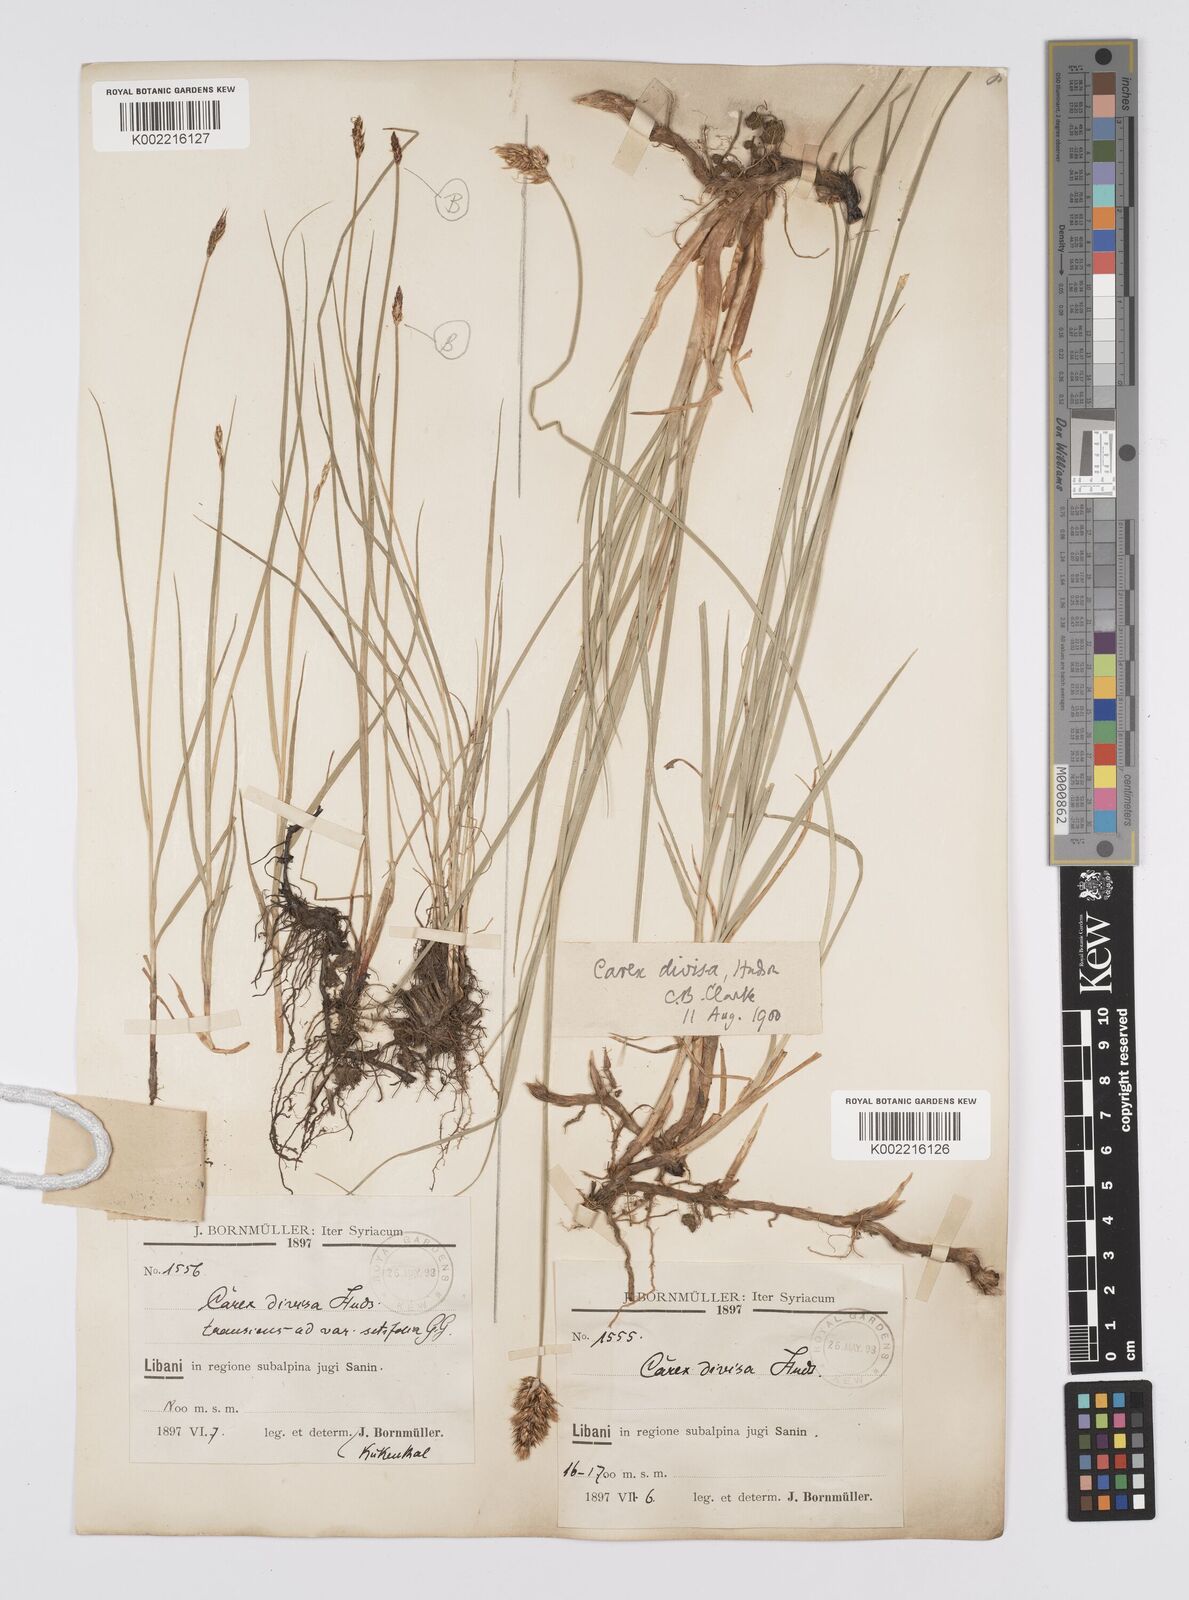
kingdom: Plantae
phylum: Tracheophyta
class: Liliopsida
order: Poales
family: Cyperaceae
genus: Carex
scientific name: Carex divisa
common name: Divided sedge
